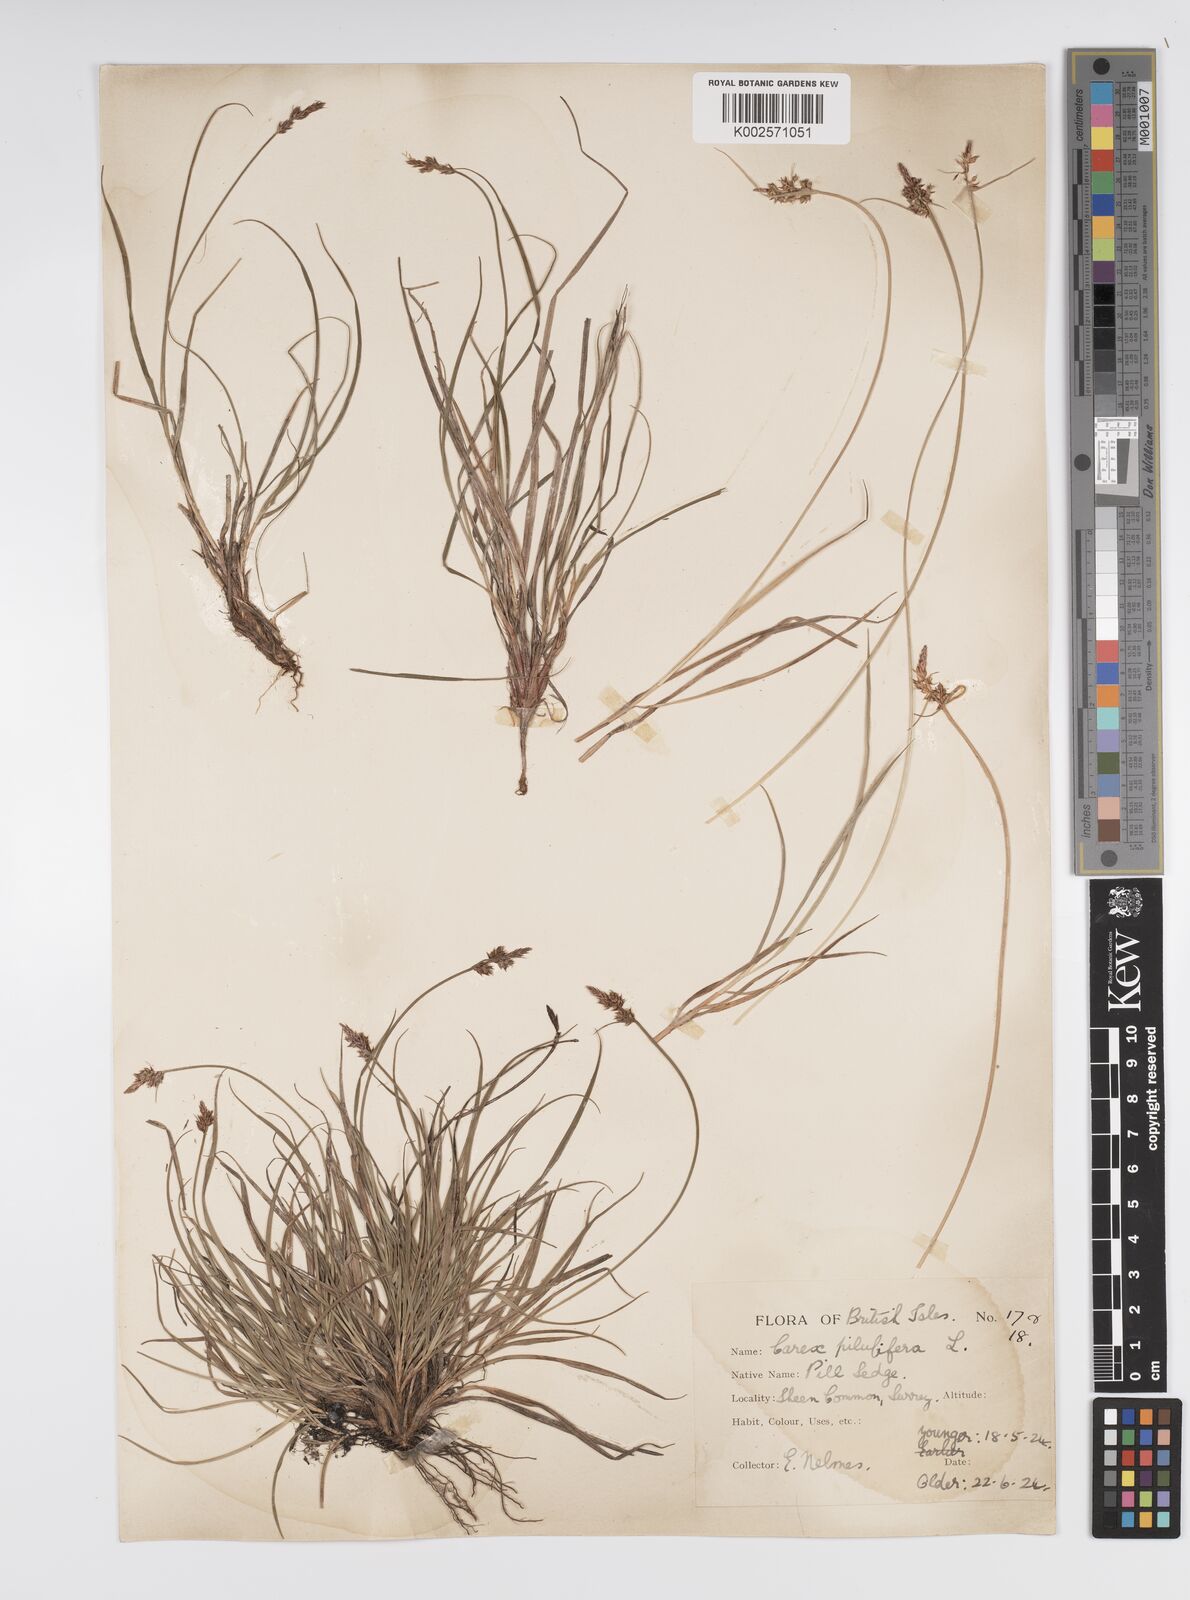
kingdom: Plantae
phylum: Tracheophyta
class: Liliopsida
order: Poales
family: Cyperaceae
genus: Carex
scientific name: Carex pilulifera
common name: Pill sedge
